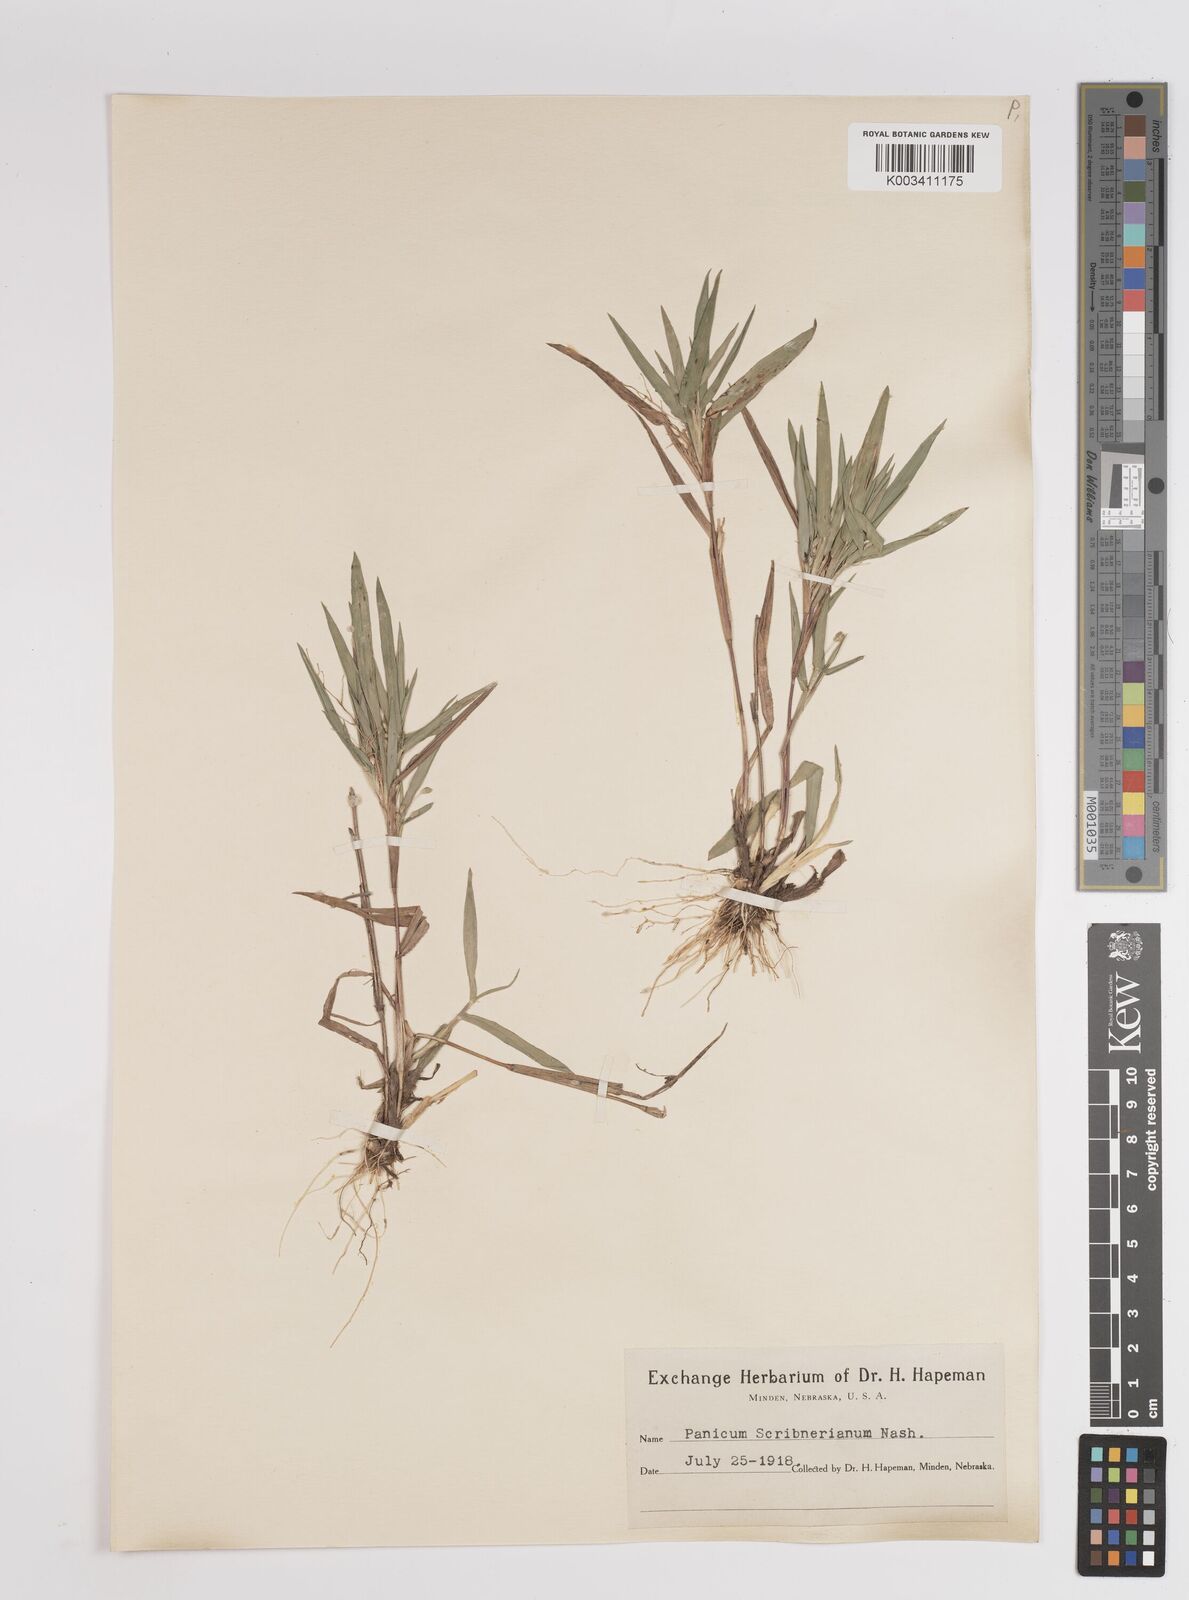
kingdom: Plantae
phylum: Tracheophyta
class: Liliopsida
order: Poales
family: Poaceae
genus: Dichanthelium
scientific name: Dichanthelium scribnerianum
